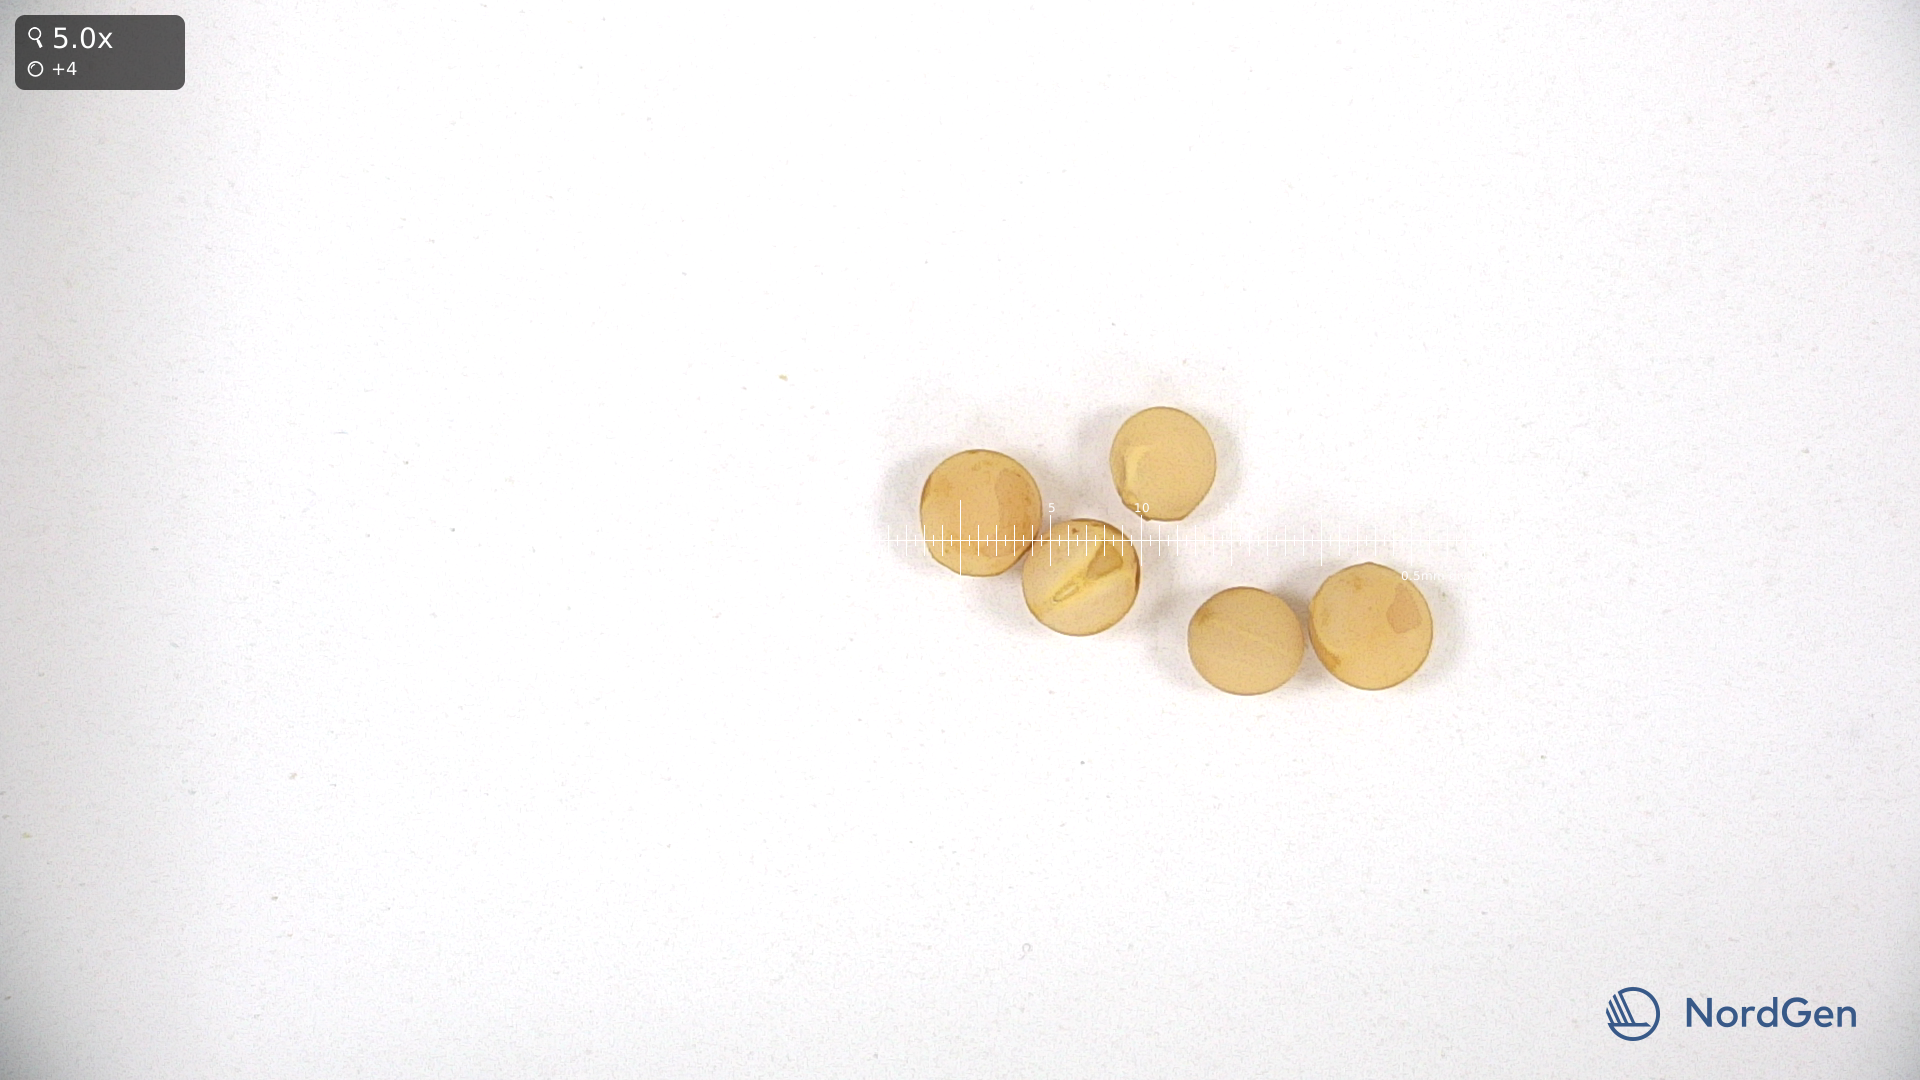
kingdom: Plantae
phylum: Tracheophyta
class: Magnoliopsida
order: Fabales
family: Fabaceae
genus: Lathyrus
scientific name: Lathyrus oleraceus
